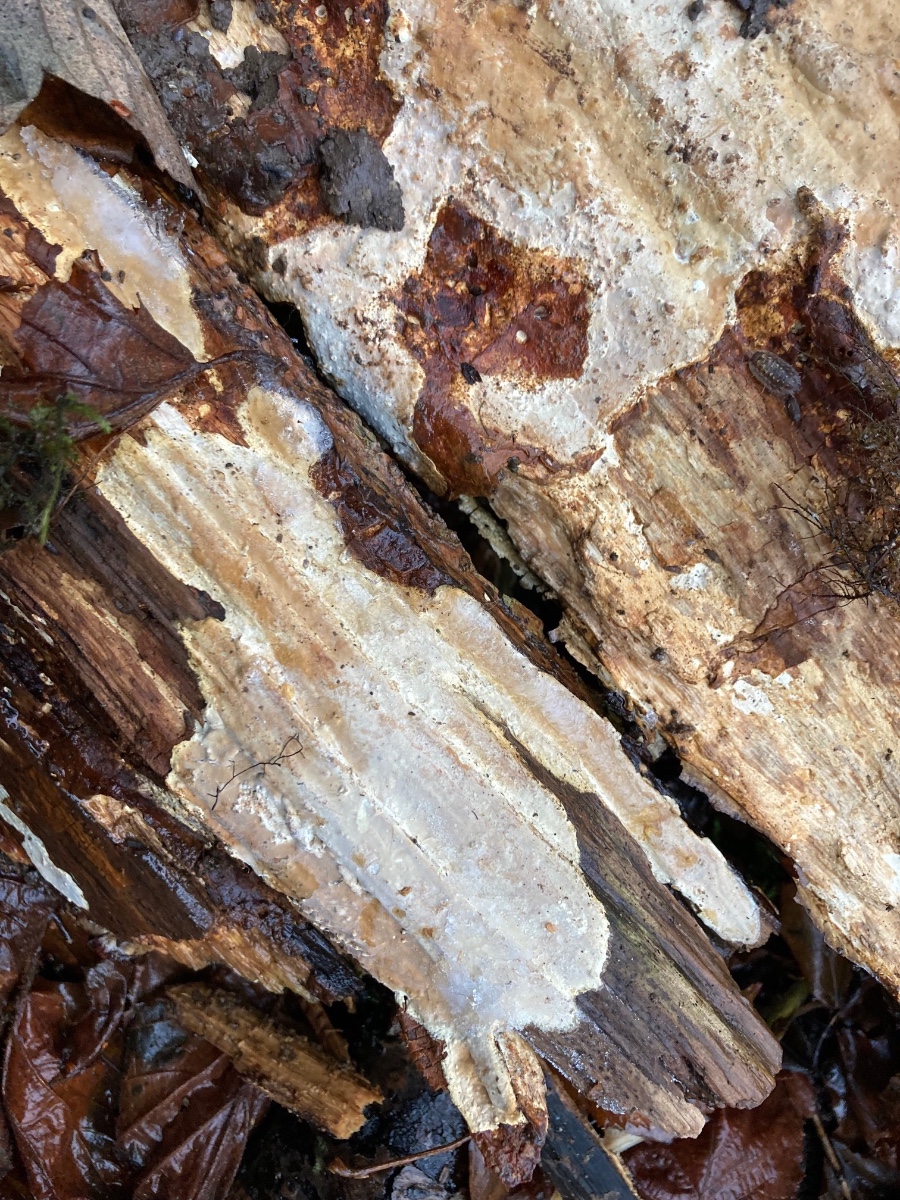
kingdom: Fungi
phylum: Basidiomycota
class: Agaricomycetes
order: Russulales
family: Peniophoraceae
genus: Scytinostroma
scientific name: Scytinostroma hemidichophyticum
